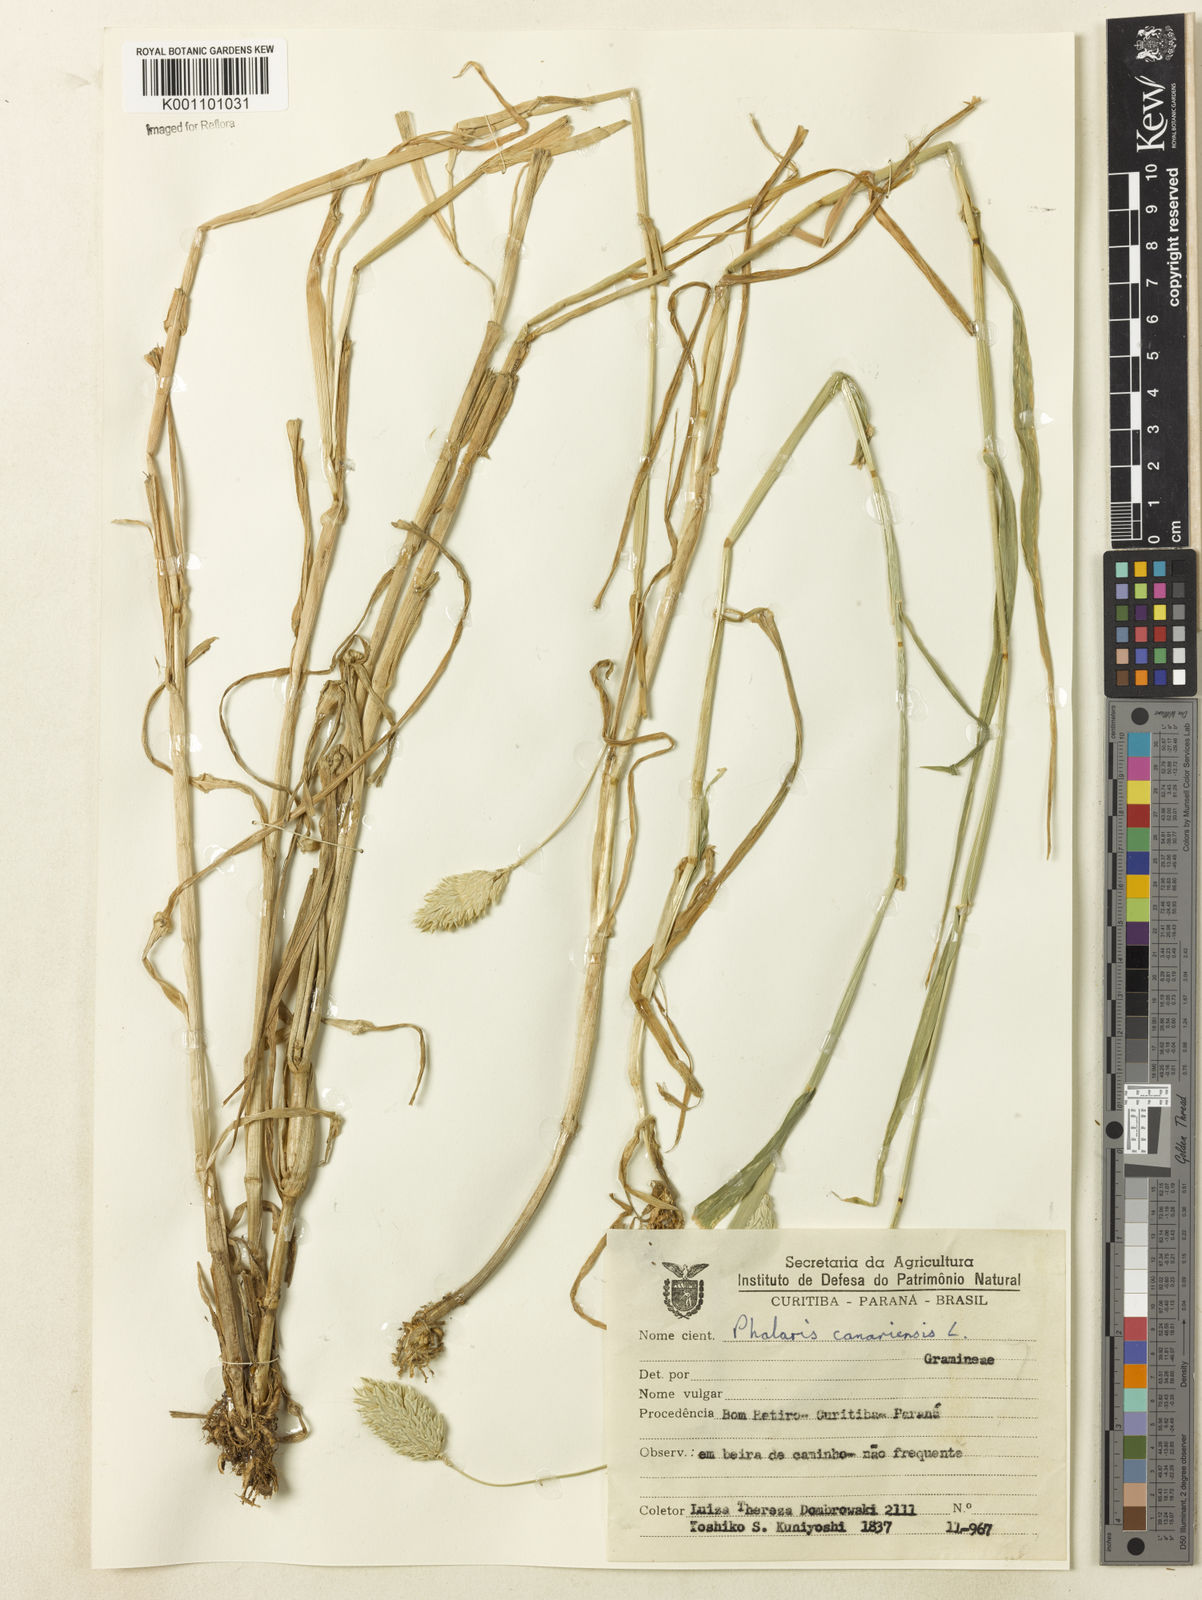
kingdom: Plantae
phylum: Tracheophyta
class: Liliopsida
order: Poales
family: Poaceae
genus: Phalaris
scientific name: Phalaris canariensis
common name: Annual canarygrass
